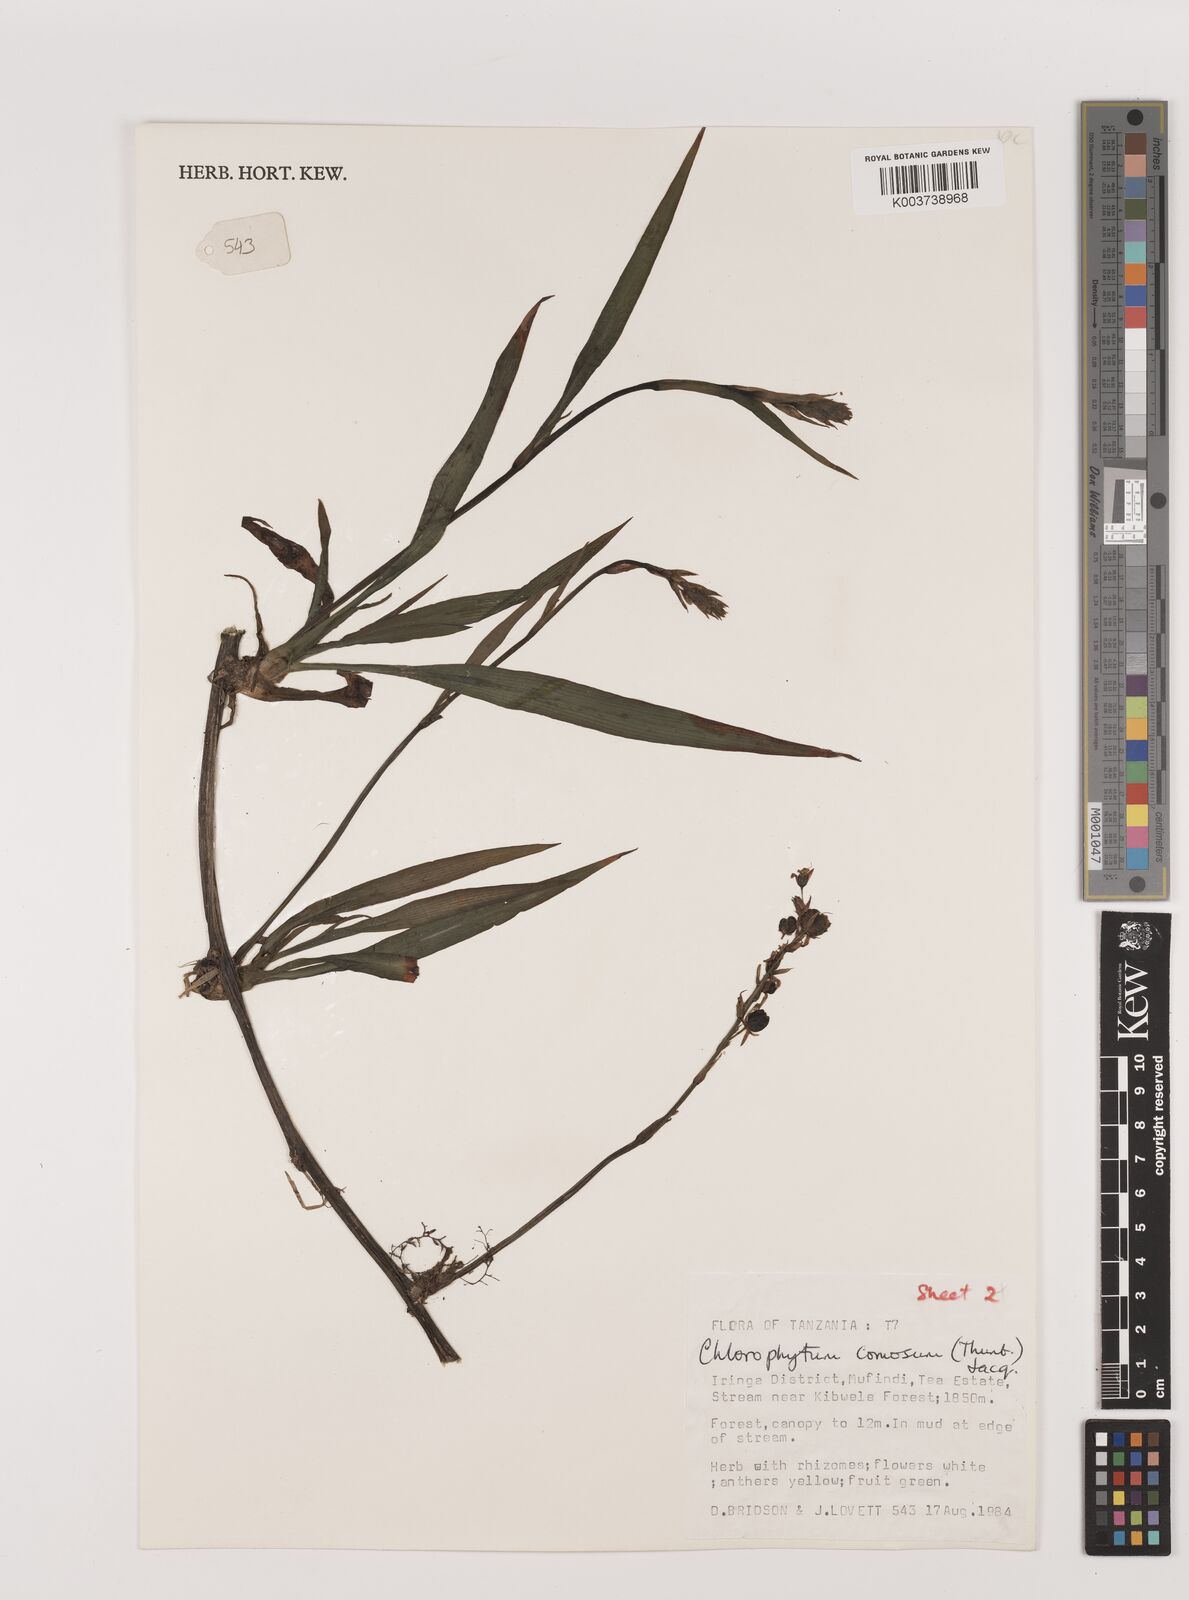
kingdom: Plantae
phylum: Tracheophyta
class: Liliopsida
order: Asparagales
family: Asparagaceae
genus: Chlorophytum
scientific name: Chlorophytum comosum
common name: Spider plant
